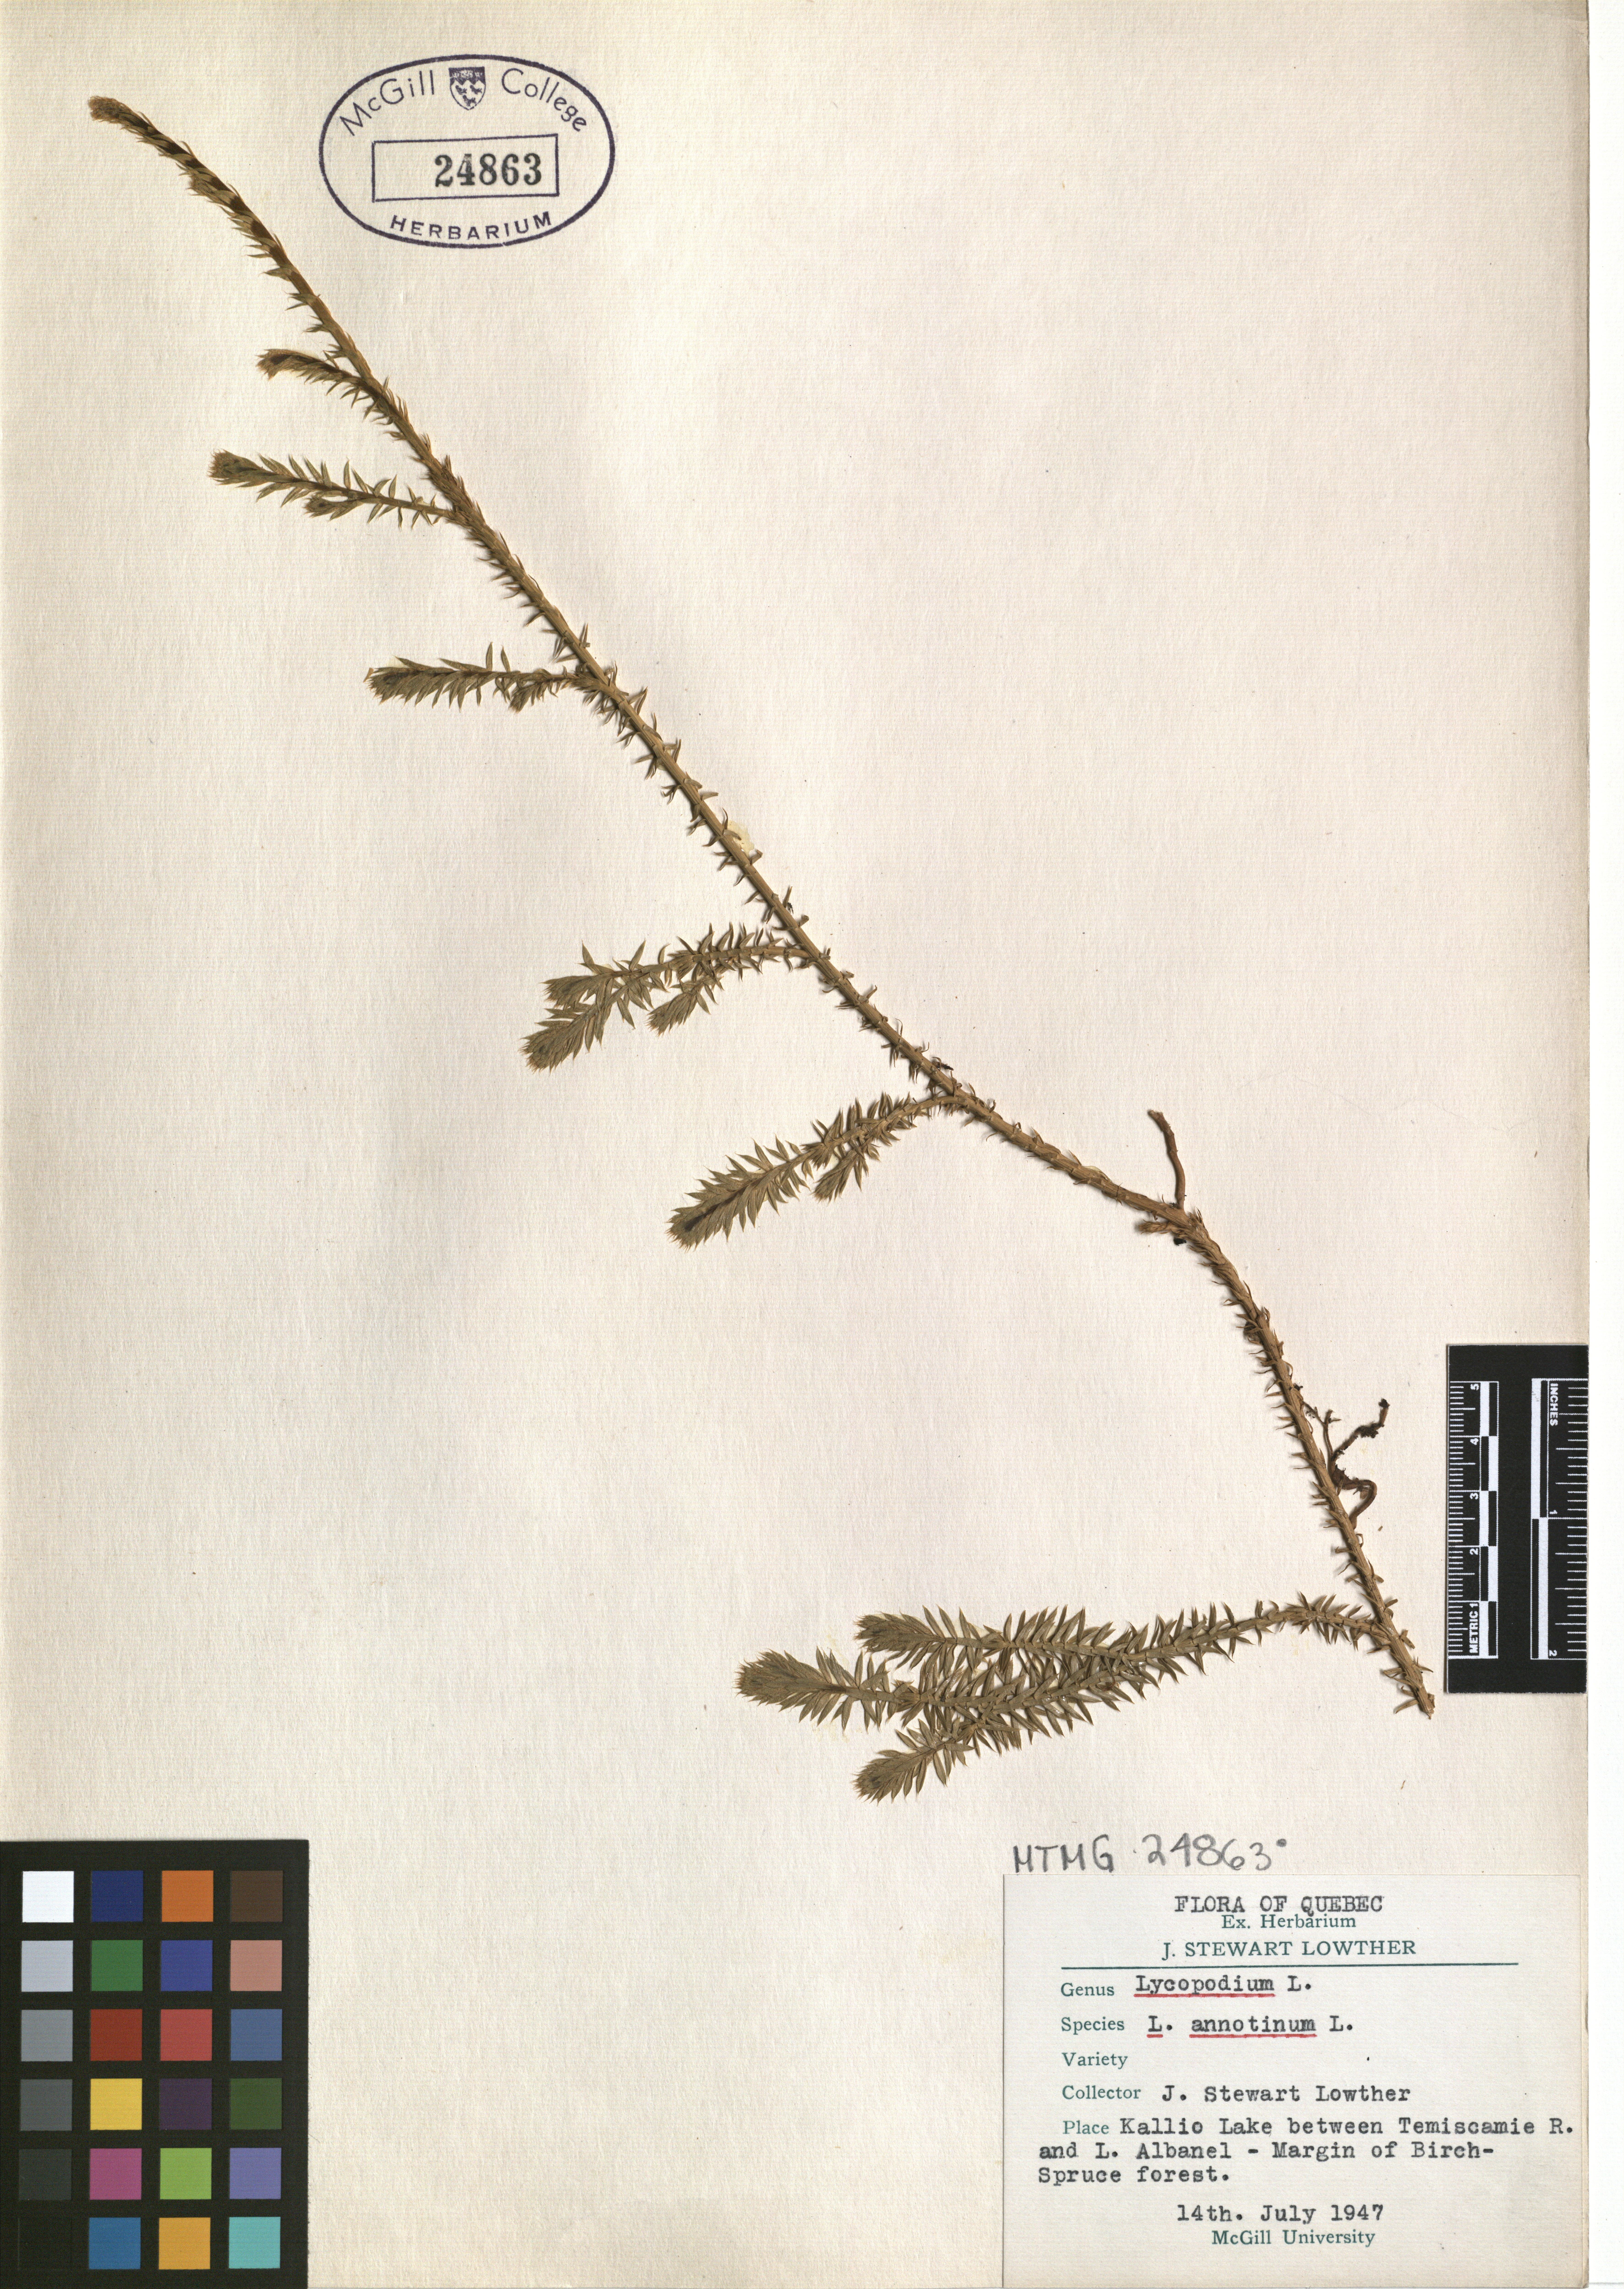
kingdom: Plantae
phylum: Tracheophyta
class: Lycopodiopsida
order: Lycopodiales
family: Lycopodiaceae
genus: Spinulum
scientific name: Spinulum annotinum
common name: Interrupted club-moss
